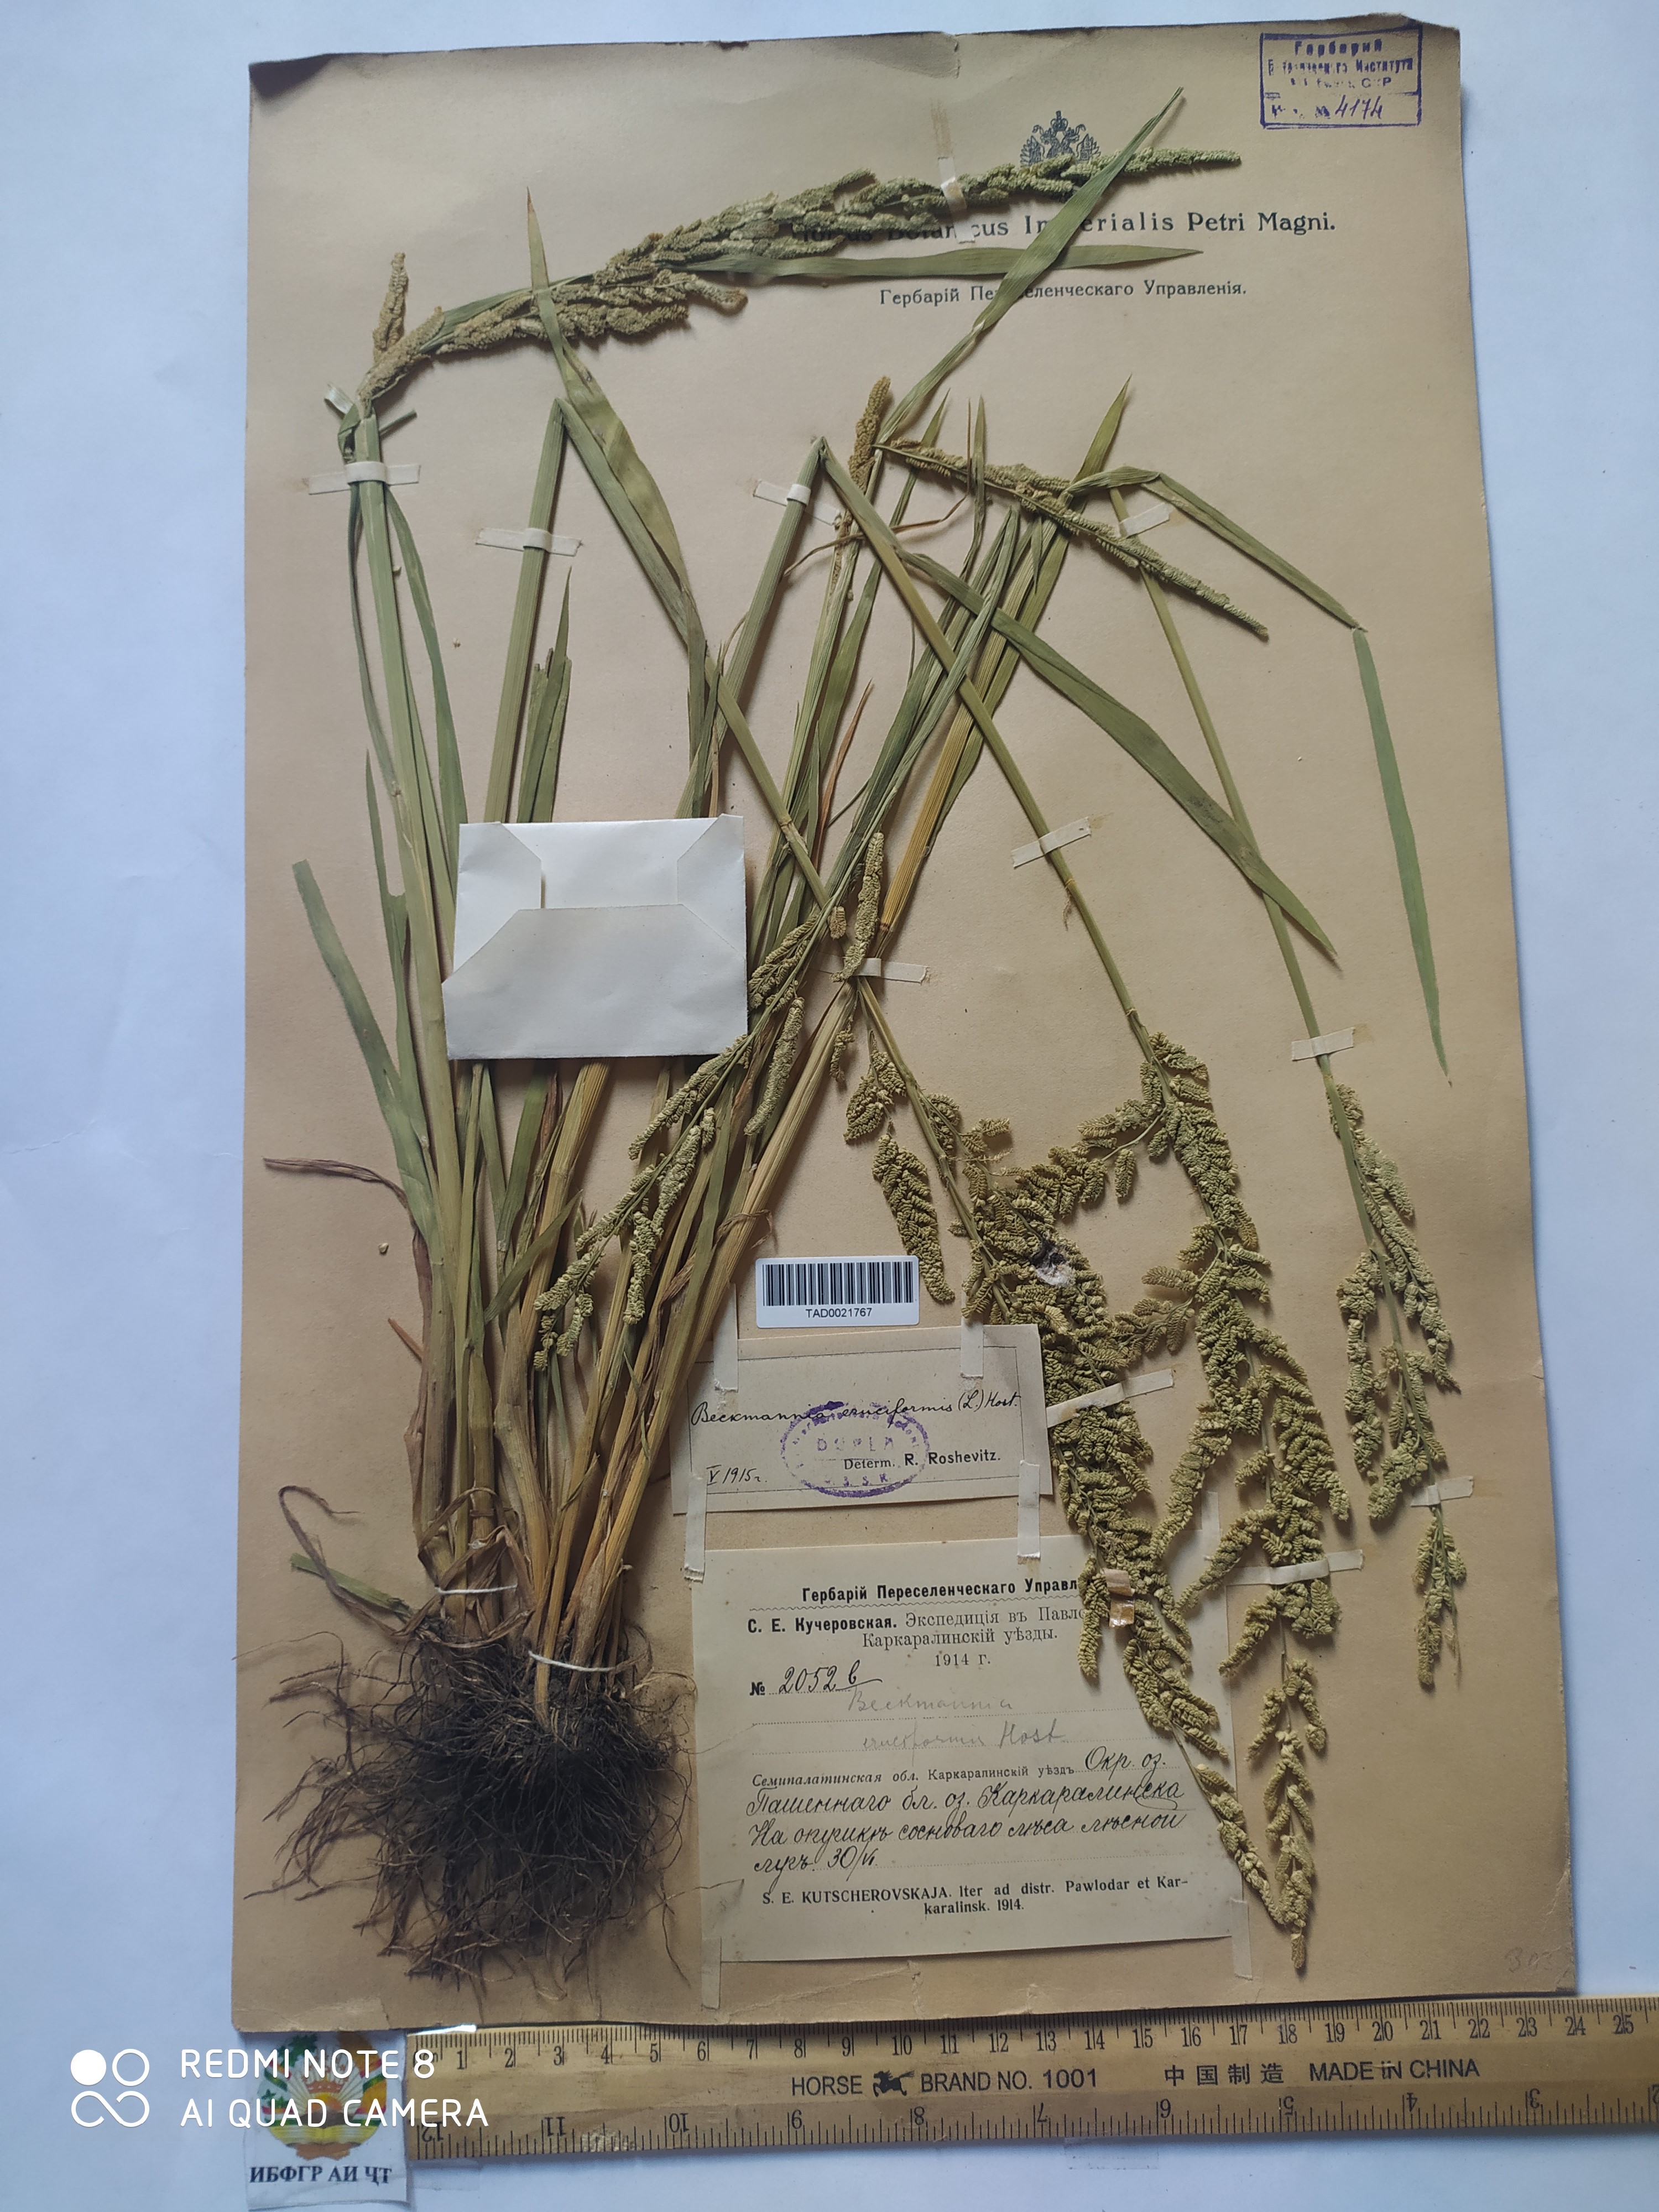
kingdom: Plantae
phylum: Tracheophyta
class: Liliopsida
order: Poales
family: Poaceae
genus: Beckmannia
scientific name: Beckmannia eruciformis
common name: European slough-grass
